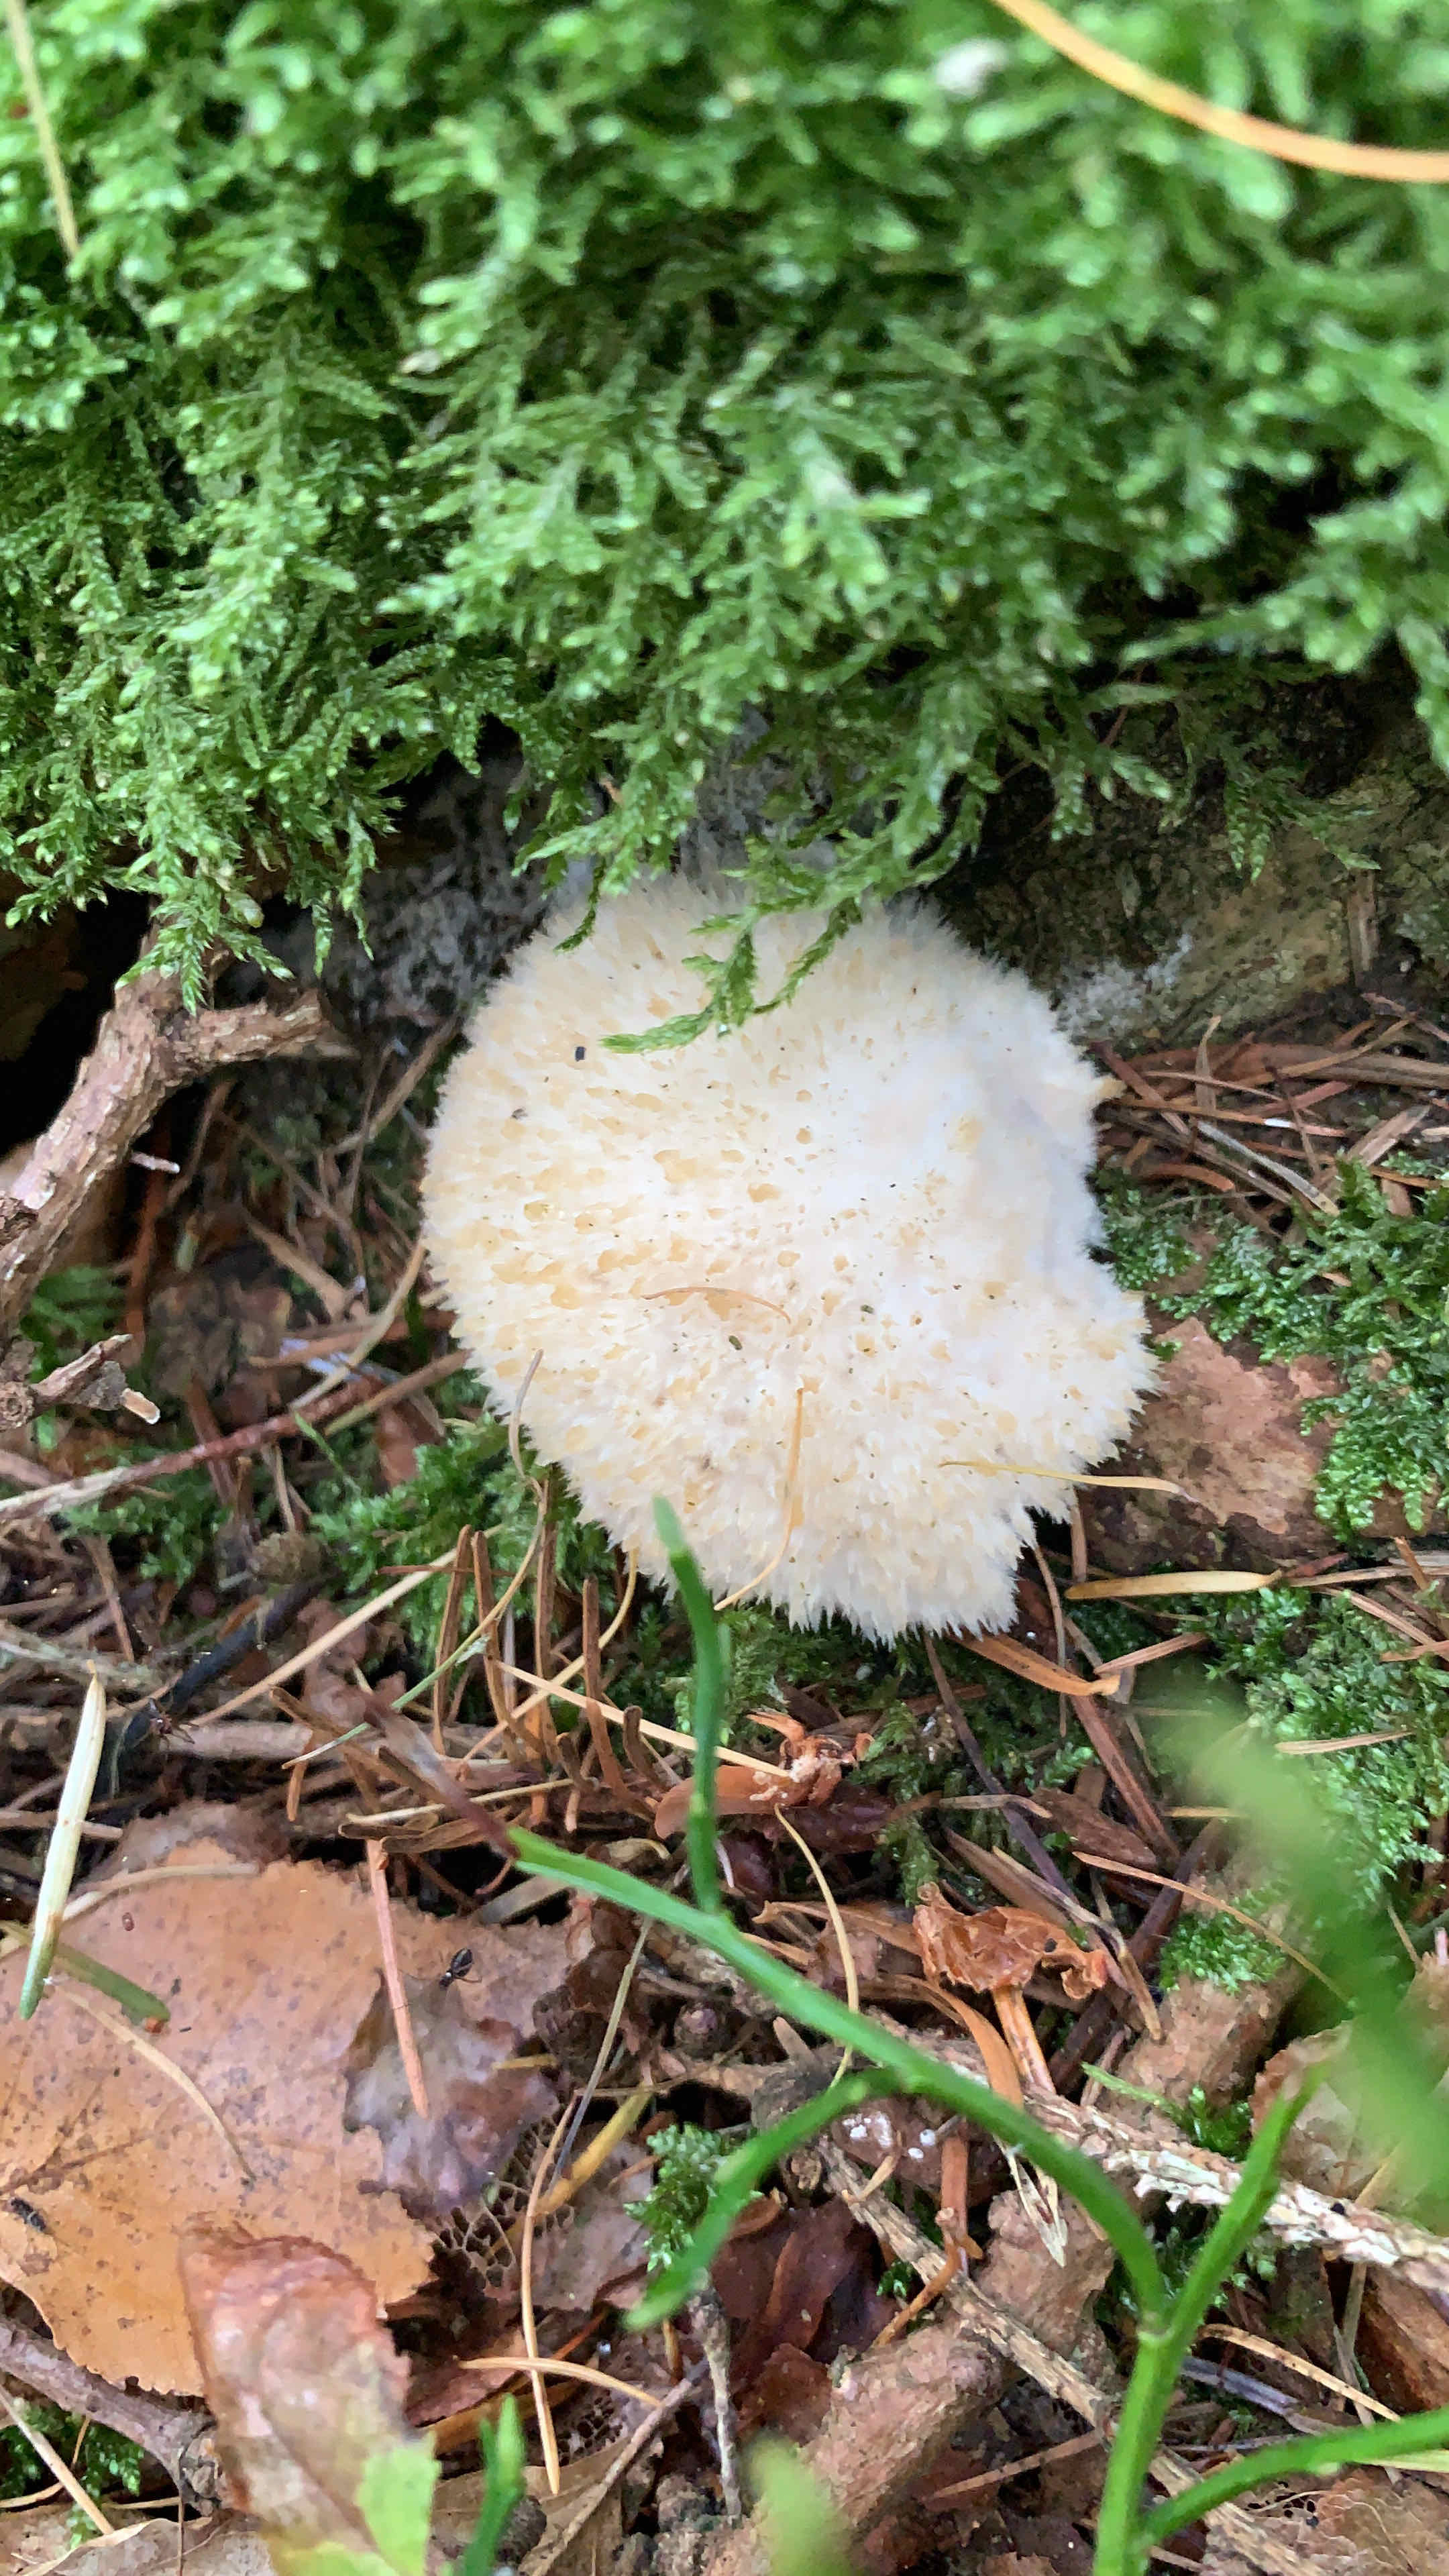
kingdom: Fungi
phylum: Basidiomycota
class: Agaricomycetes
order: Polyporales
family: Dacryobolaceae
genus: Postia
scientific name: Postia ptychogaster
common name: støvende kødporesvamp
